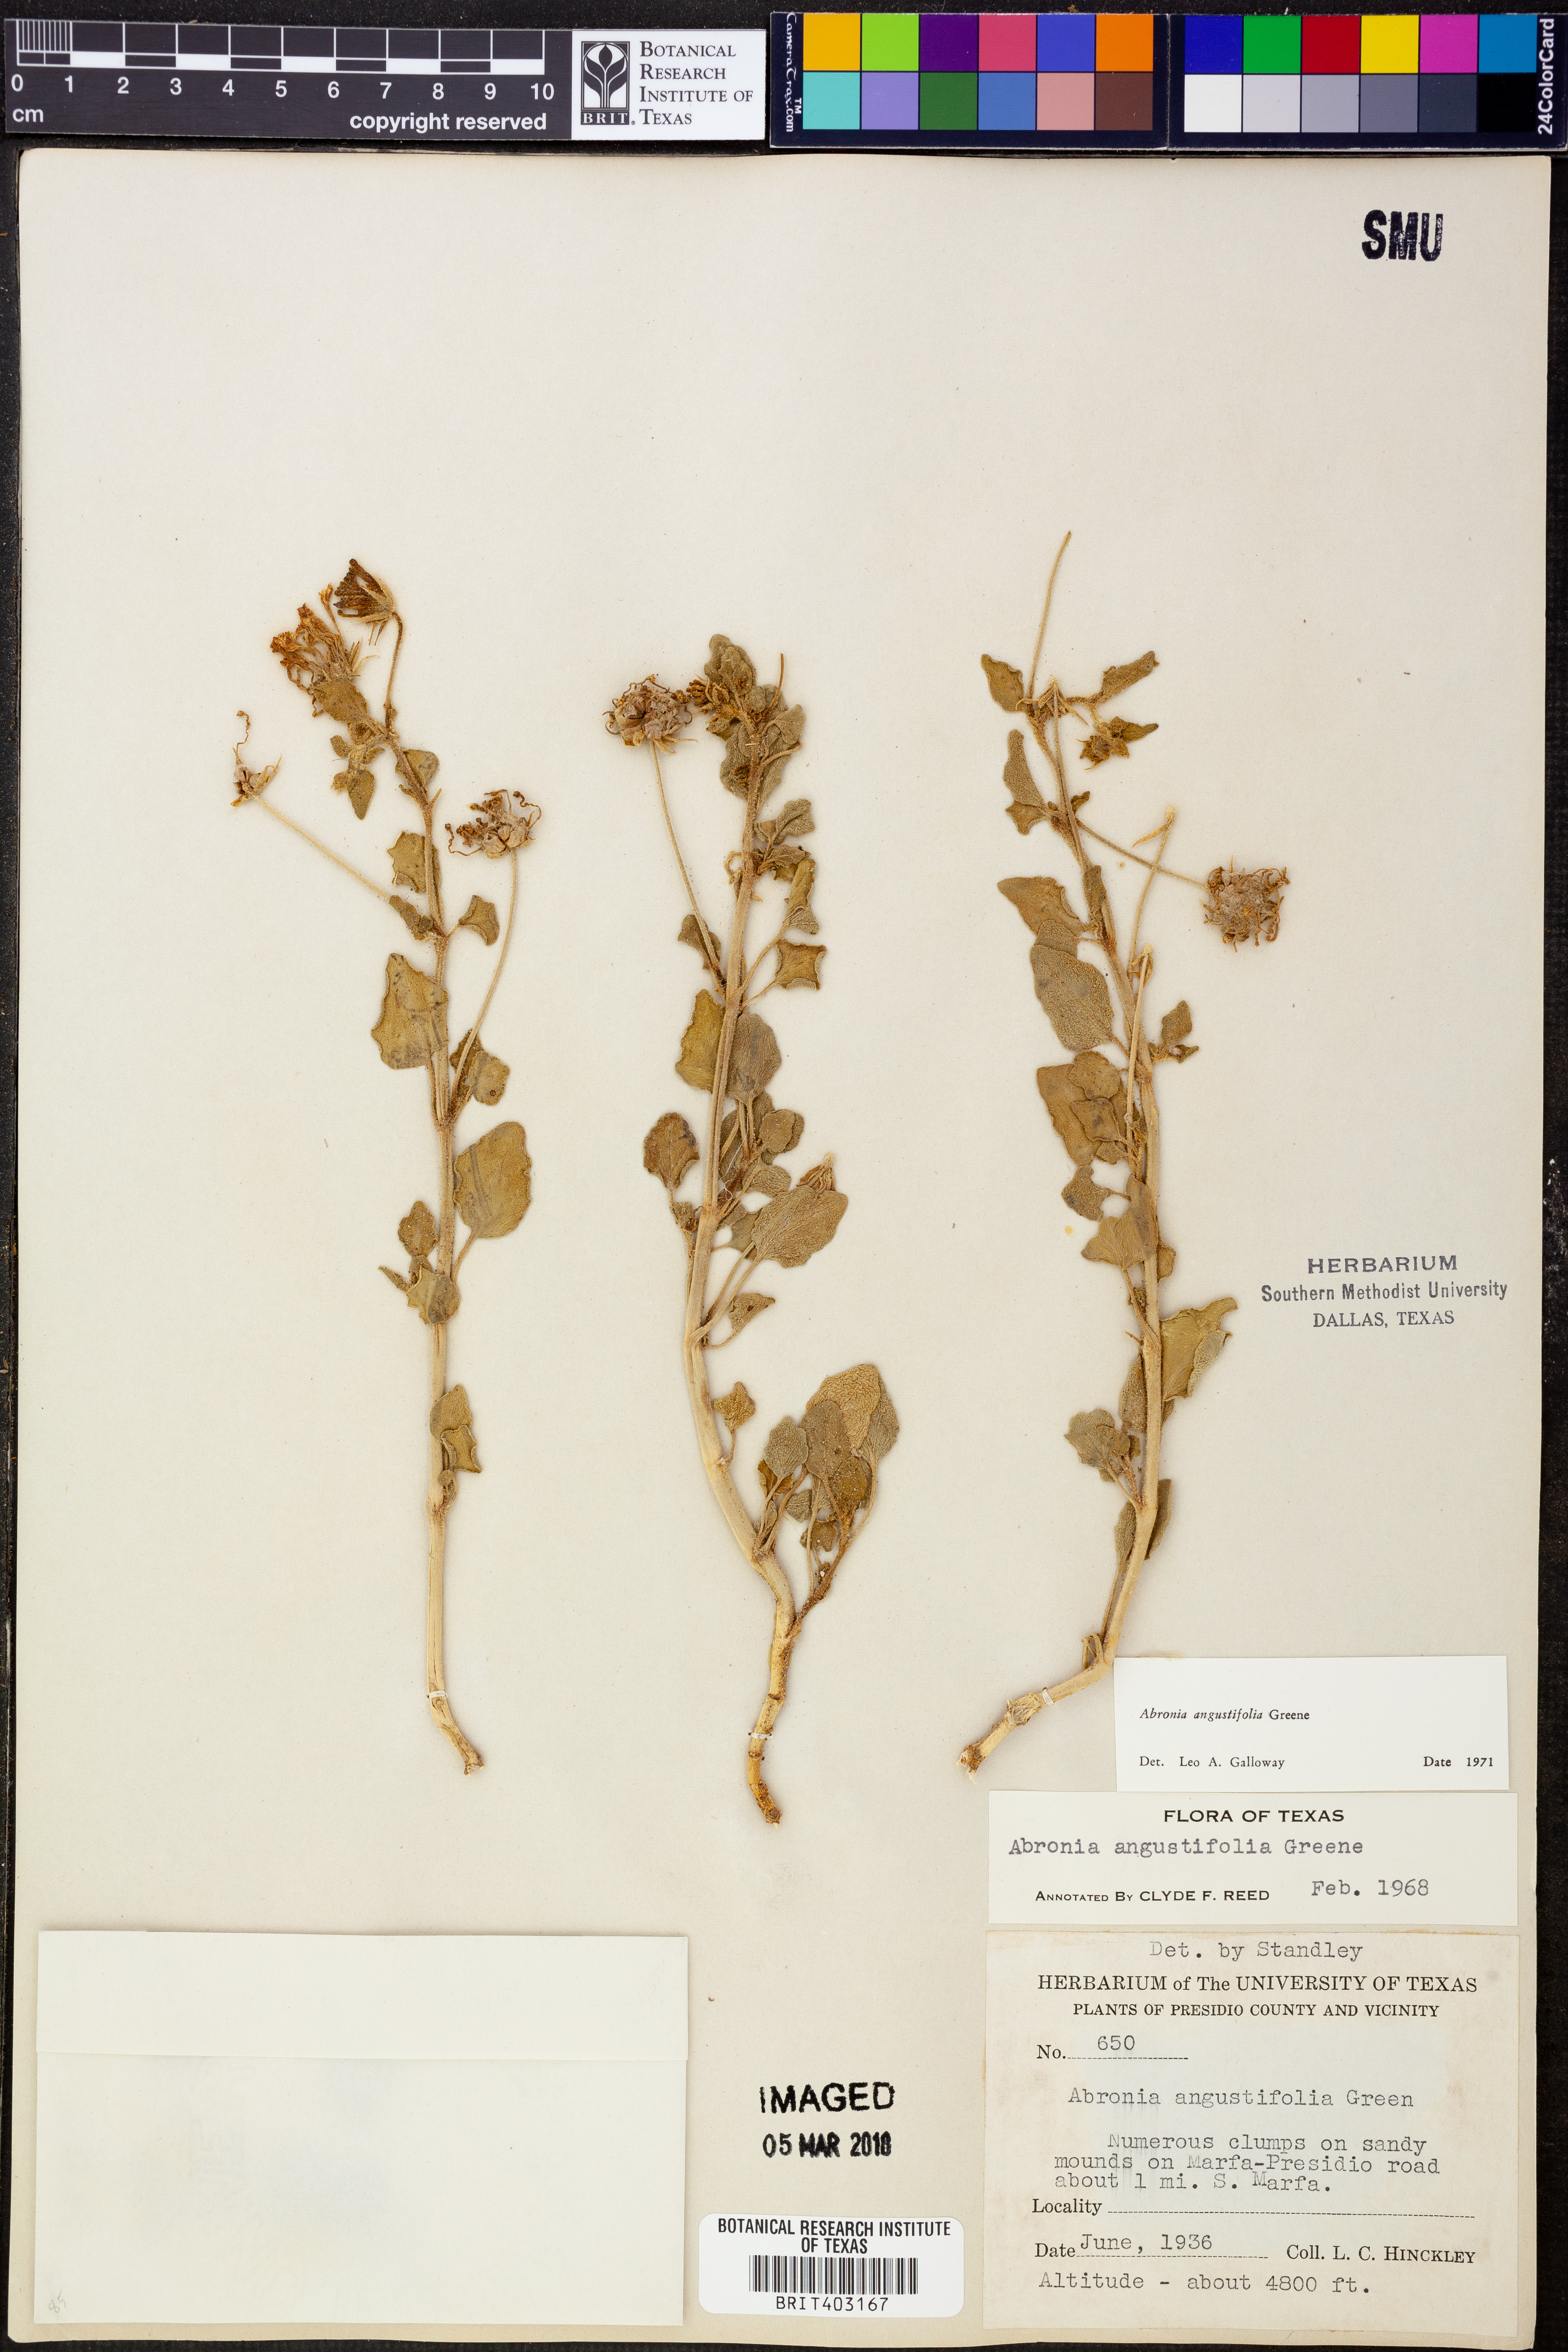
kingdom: Plantae
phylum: Tracheophyta
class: Magnoliopsida
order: Caryophyllales
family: Nyctaginaceae
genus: Abronia
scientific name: Abronia angustifolia
